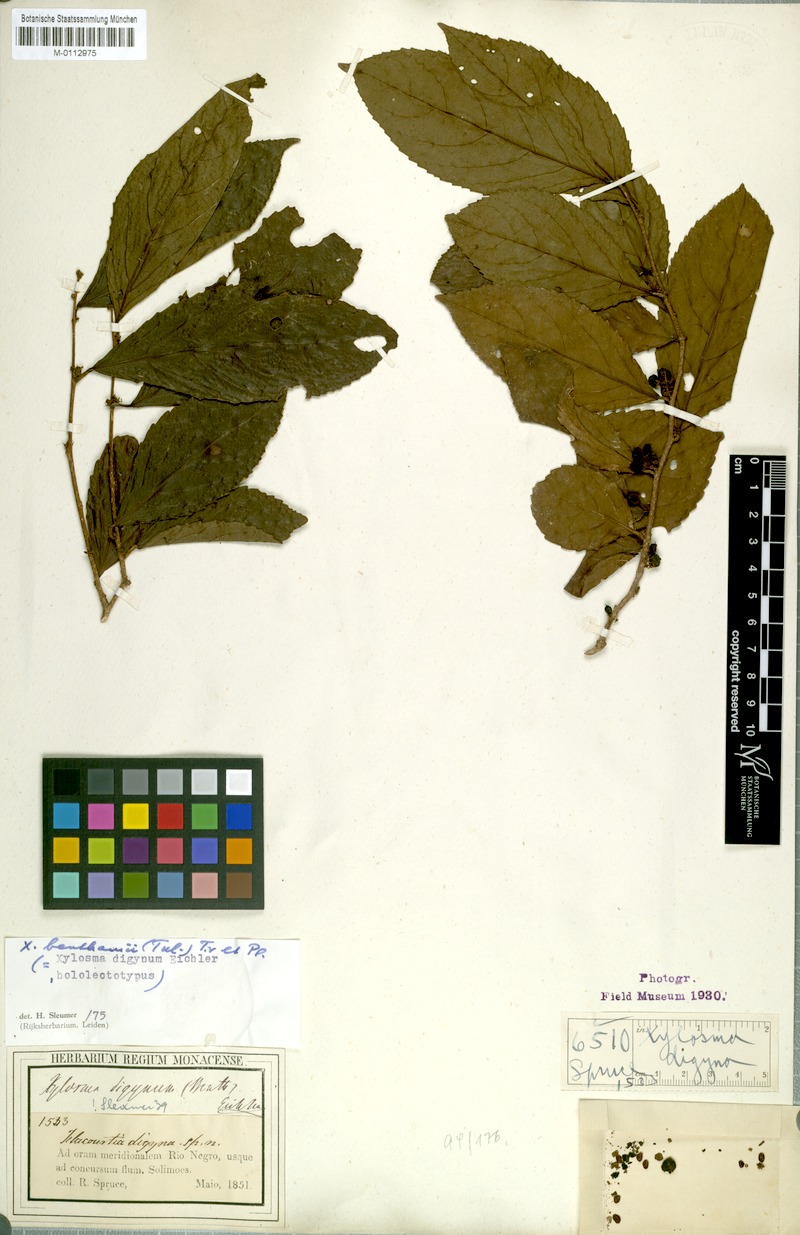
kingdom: Plantae
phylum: Tracheophyta
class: Magnoliopsida
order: Malpighiales
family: Salicaceae
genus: Xylosma
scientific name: Xylosma benthamii
